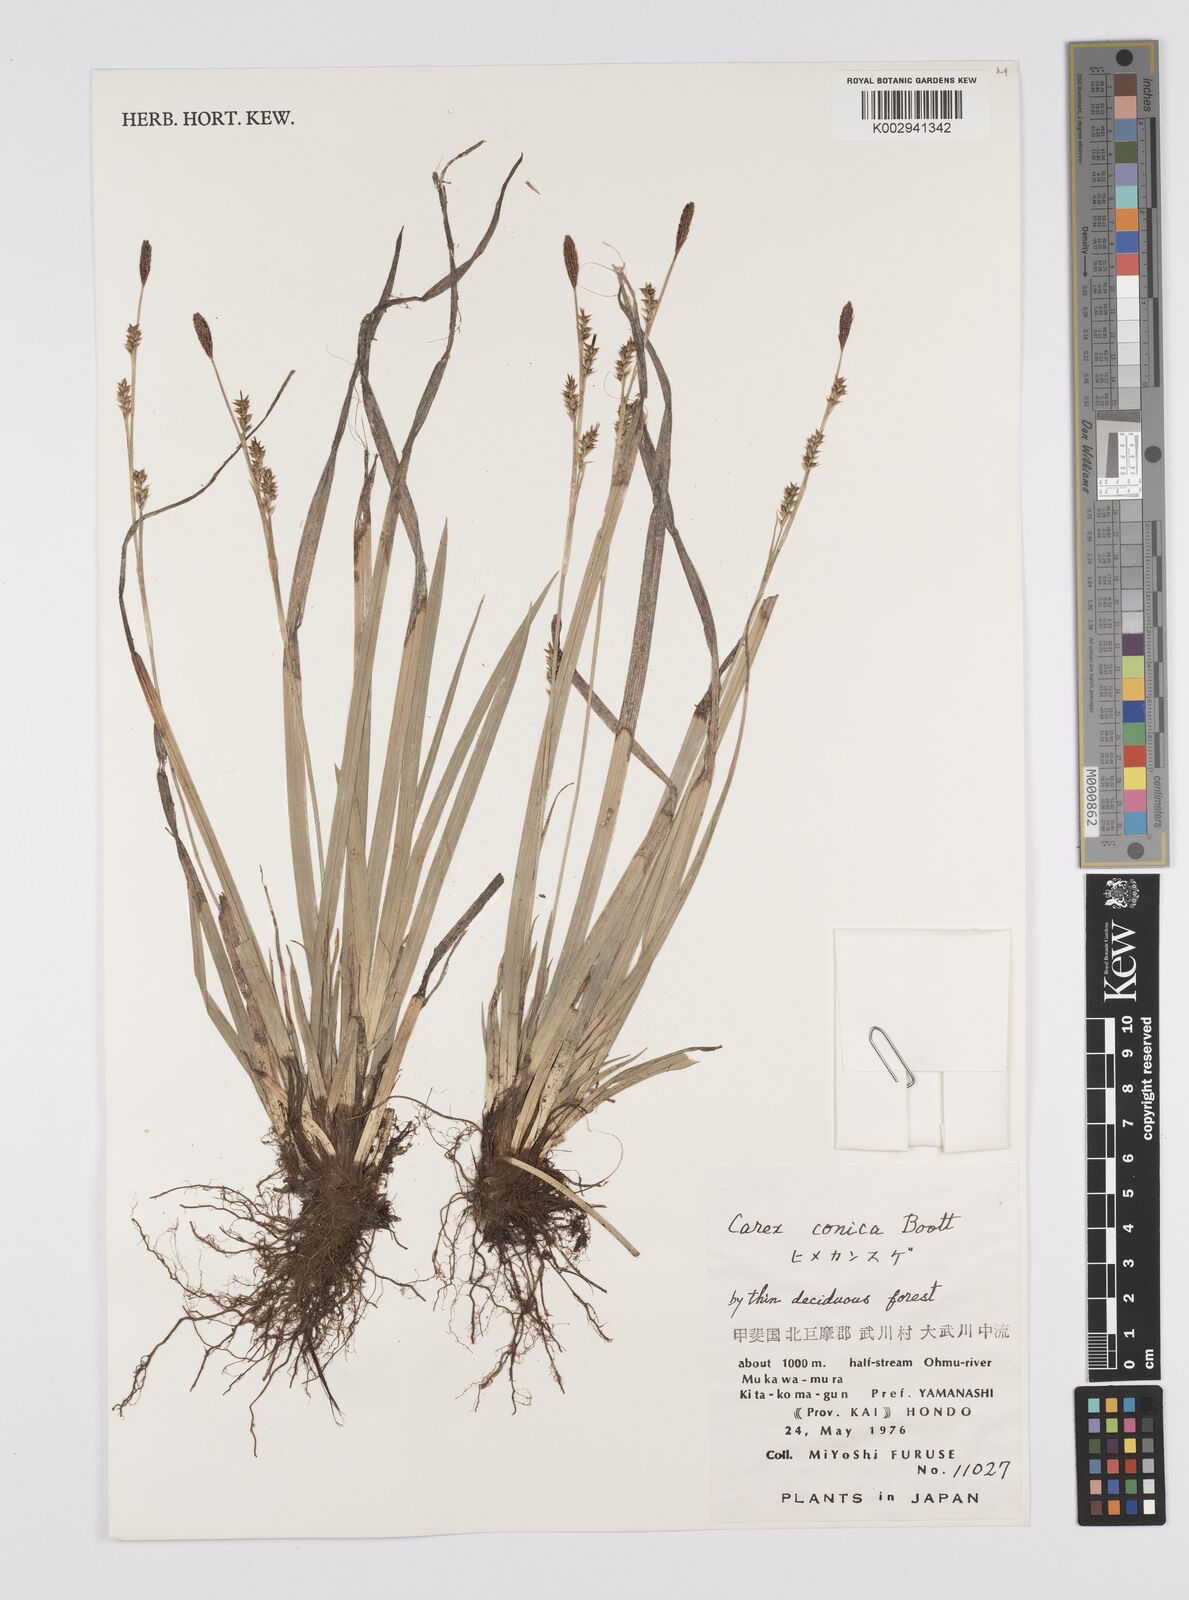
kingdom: Plantae
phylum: Tracheophyta
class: Liliopsida
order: Poales
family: Cyperaceae
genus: Carex
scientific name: Carex conica
